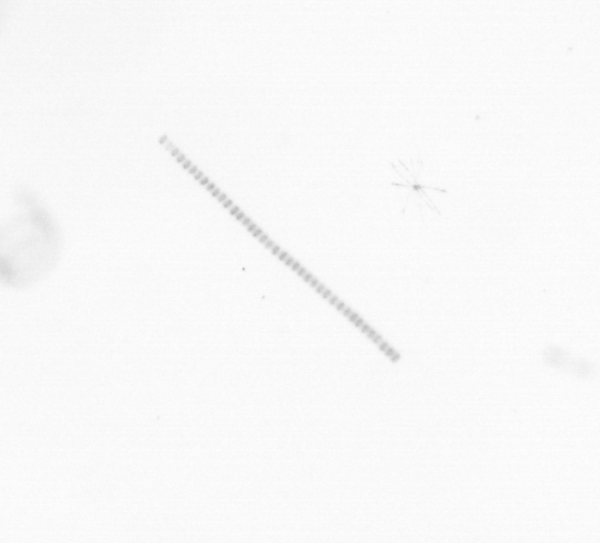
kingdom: Chromista
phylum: Ochrophyta
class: Bacillariophyceae
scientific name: Bacillariophyceae
